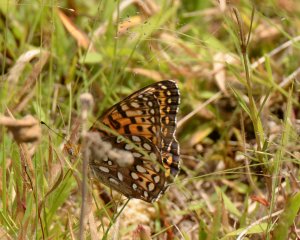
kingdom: Animalia
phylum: Arthropoda
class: Insecta
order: Lepidoptera
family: Nymphalidae
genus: Speyeria
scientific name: Speyeria atlantis
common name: Atlantis Fritillary
